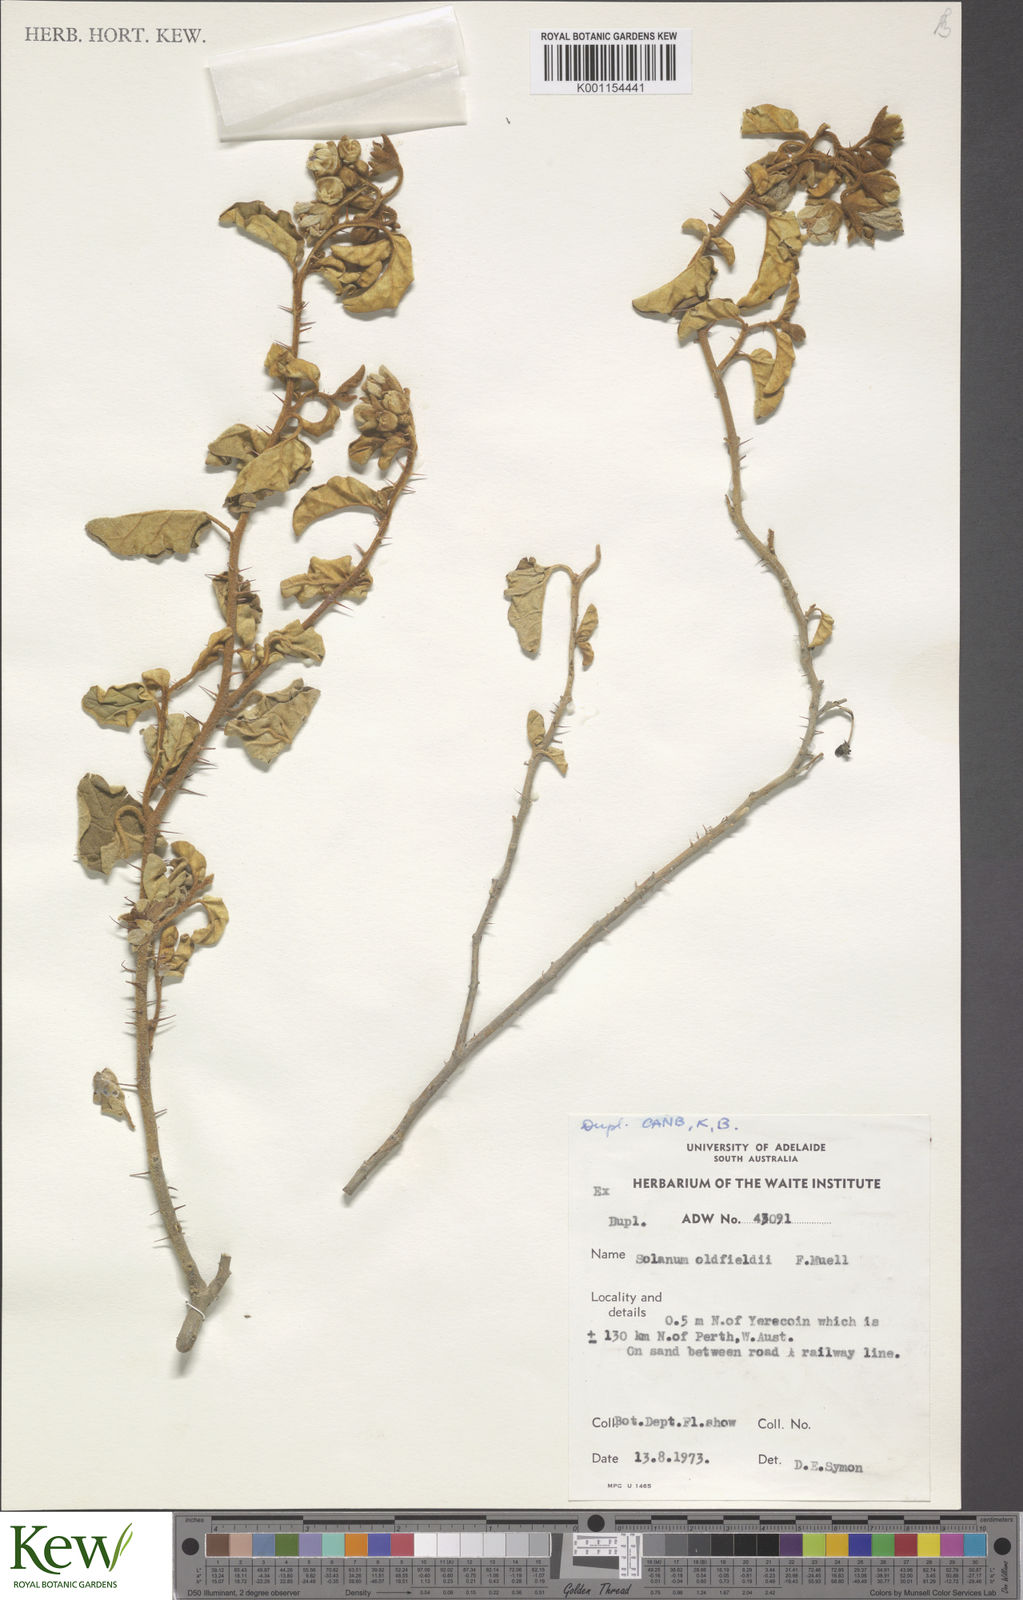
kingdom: Plantae
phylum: Tracheophyta
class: Magnoliopsida
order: Solanales
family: Solanaceae
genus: Solanum
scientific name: Solanum oldfieldii
